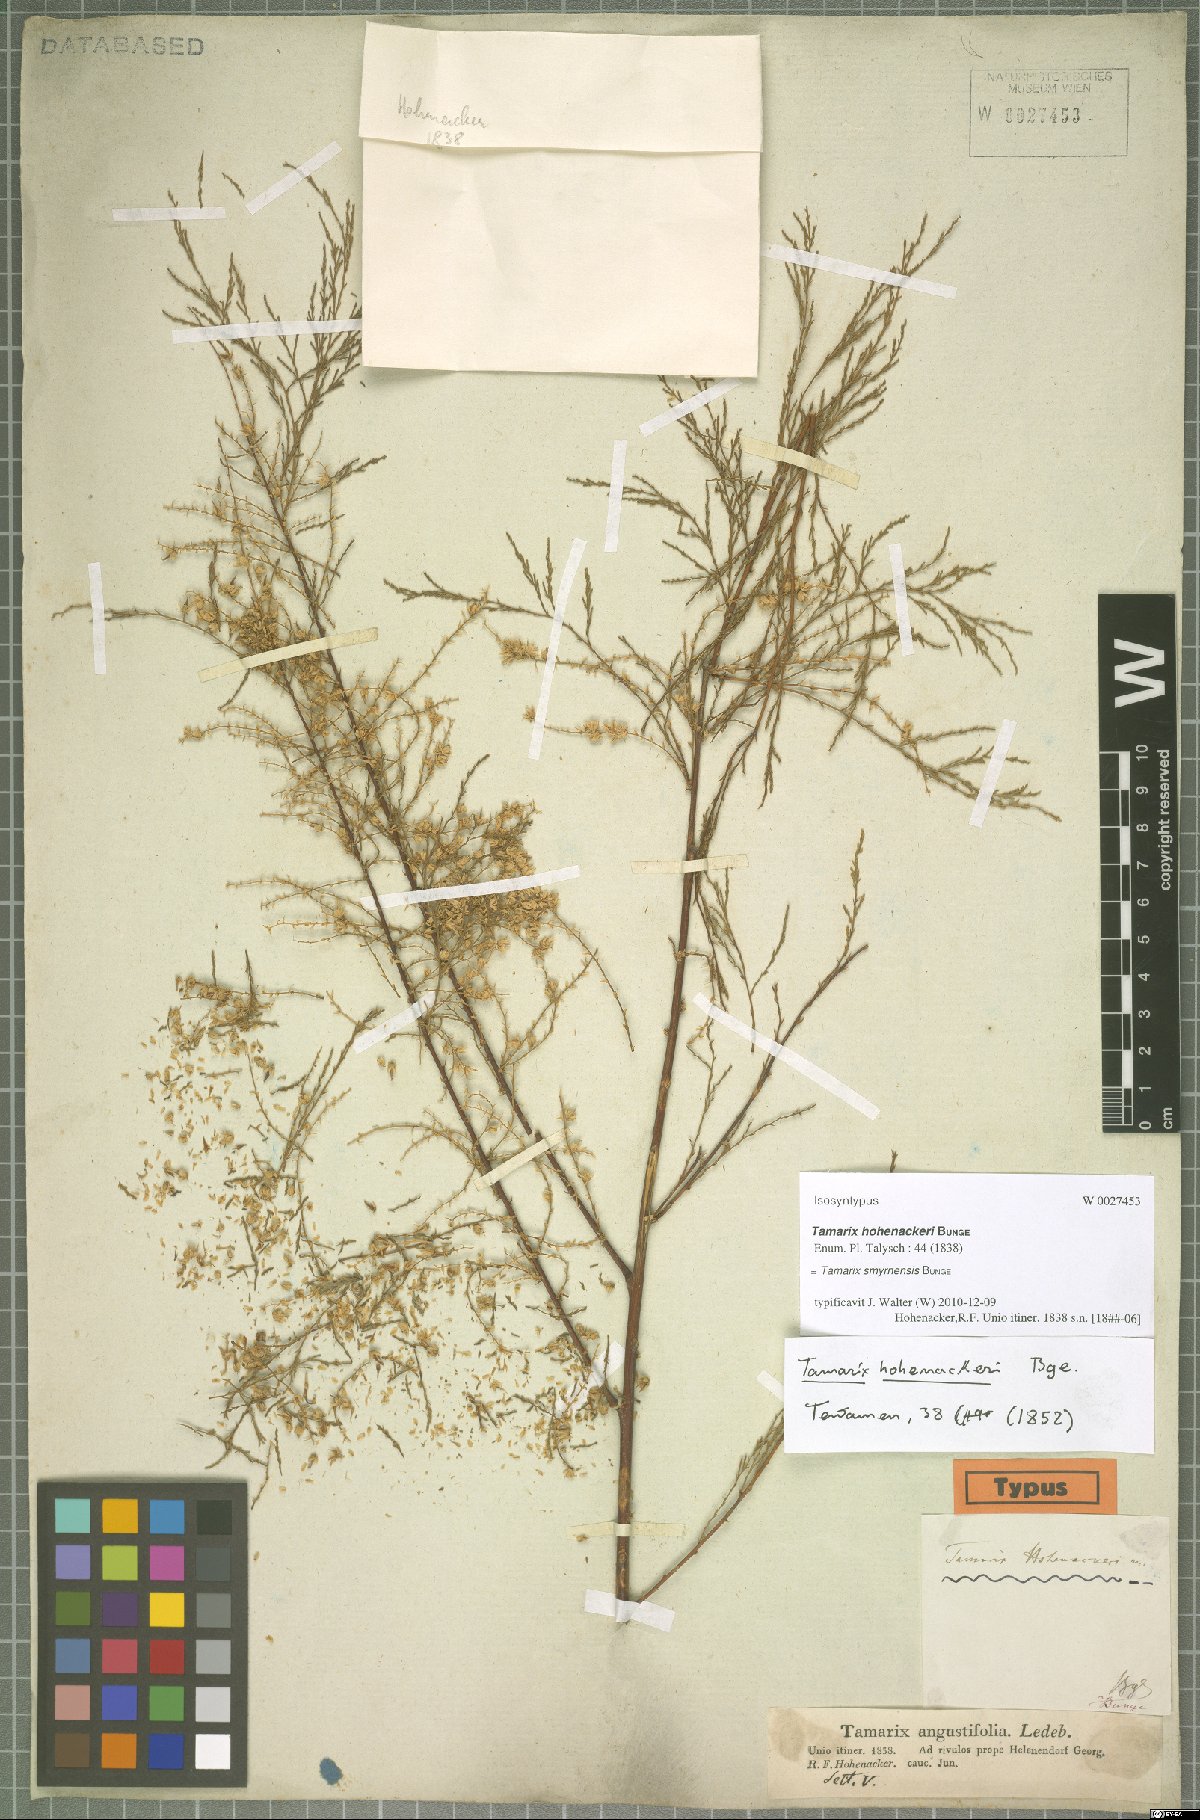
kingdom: Plantae
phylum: Tracheophyta
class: Magnoliopsida
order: Caryophyllales
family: Tamaricaceae
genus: Tamarix
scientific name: Tamarix smyrnensis
